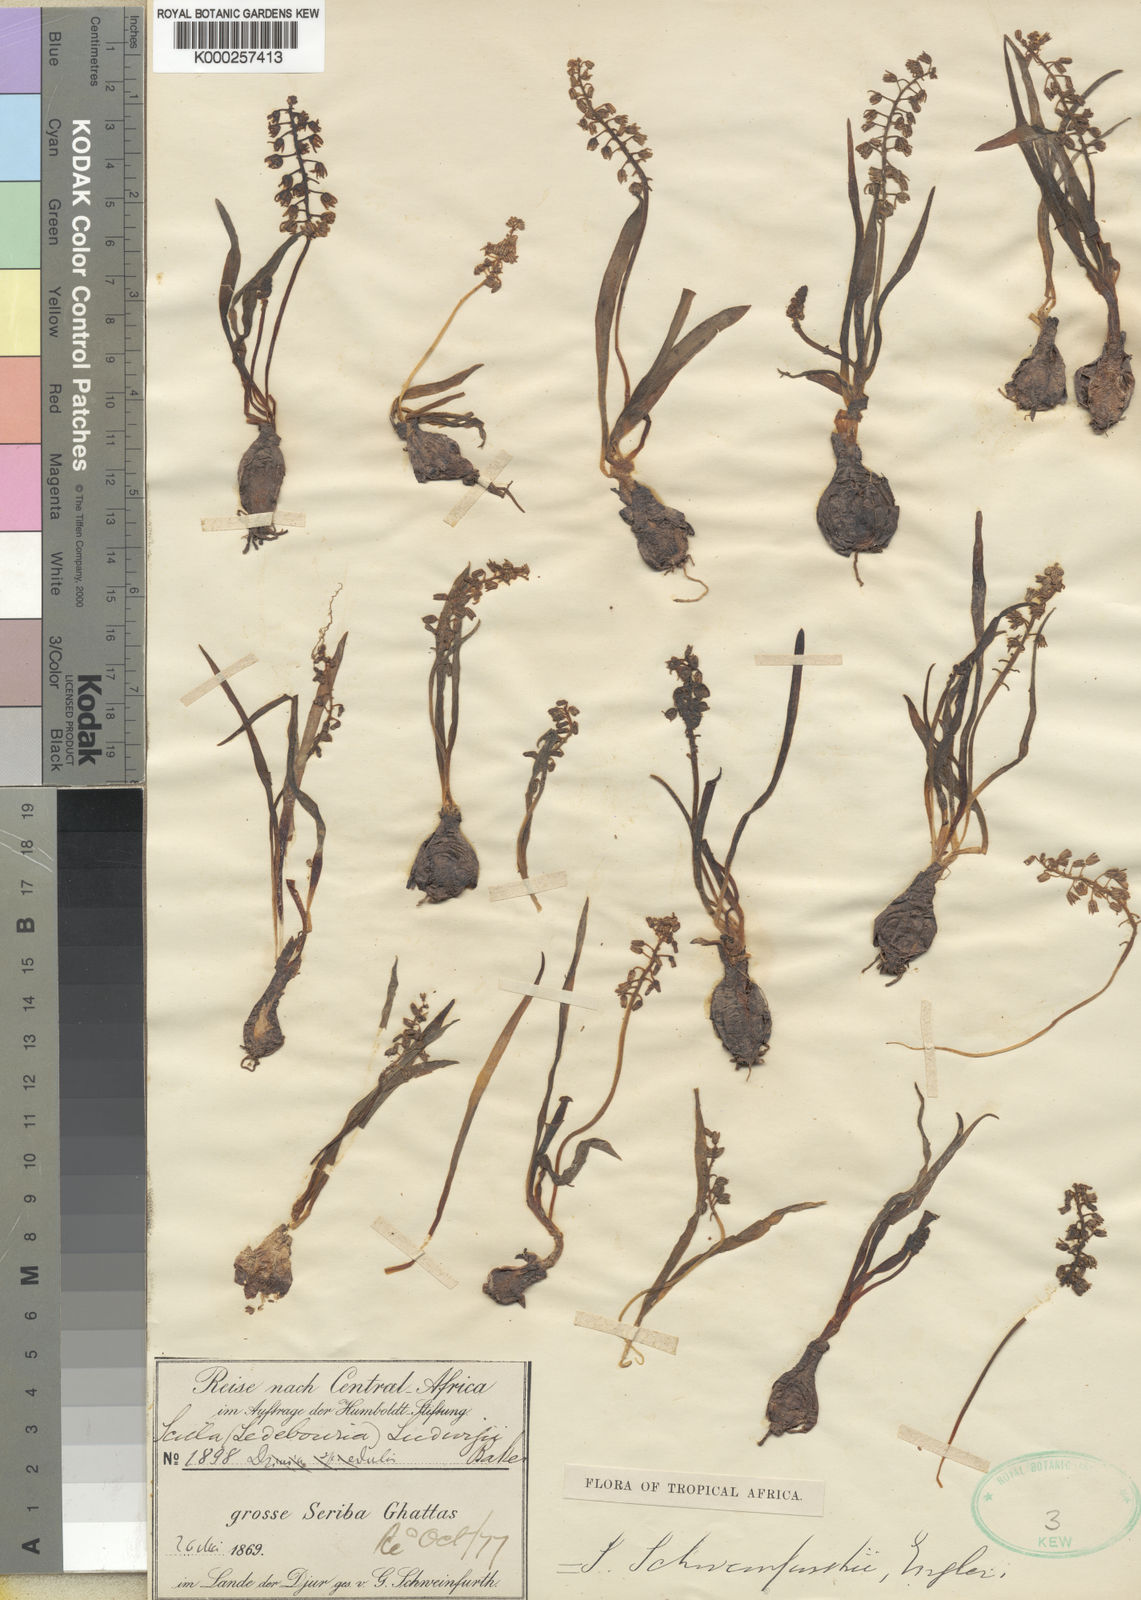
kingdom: Plantae
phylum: Tracheophyta
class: Liliopsida
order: Asparagales
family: Asparagaceae
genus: Scilla
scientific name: Scilla schweinfurthii
